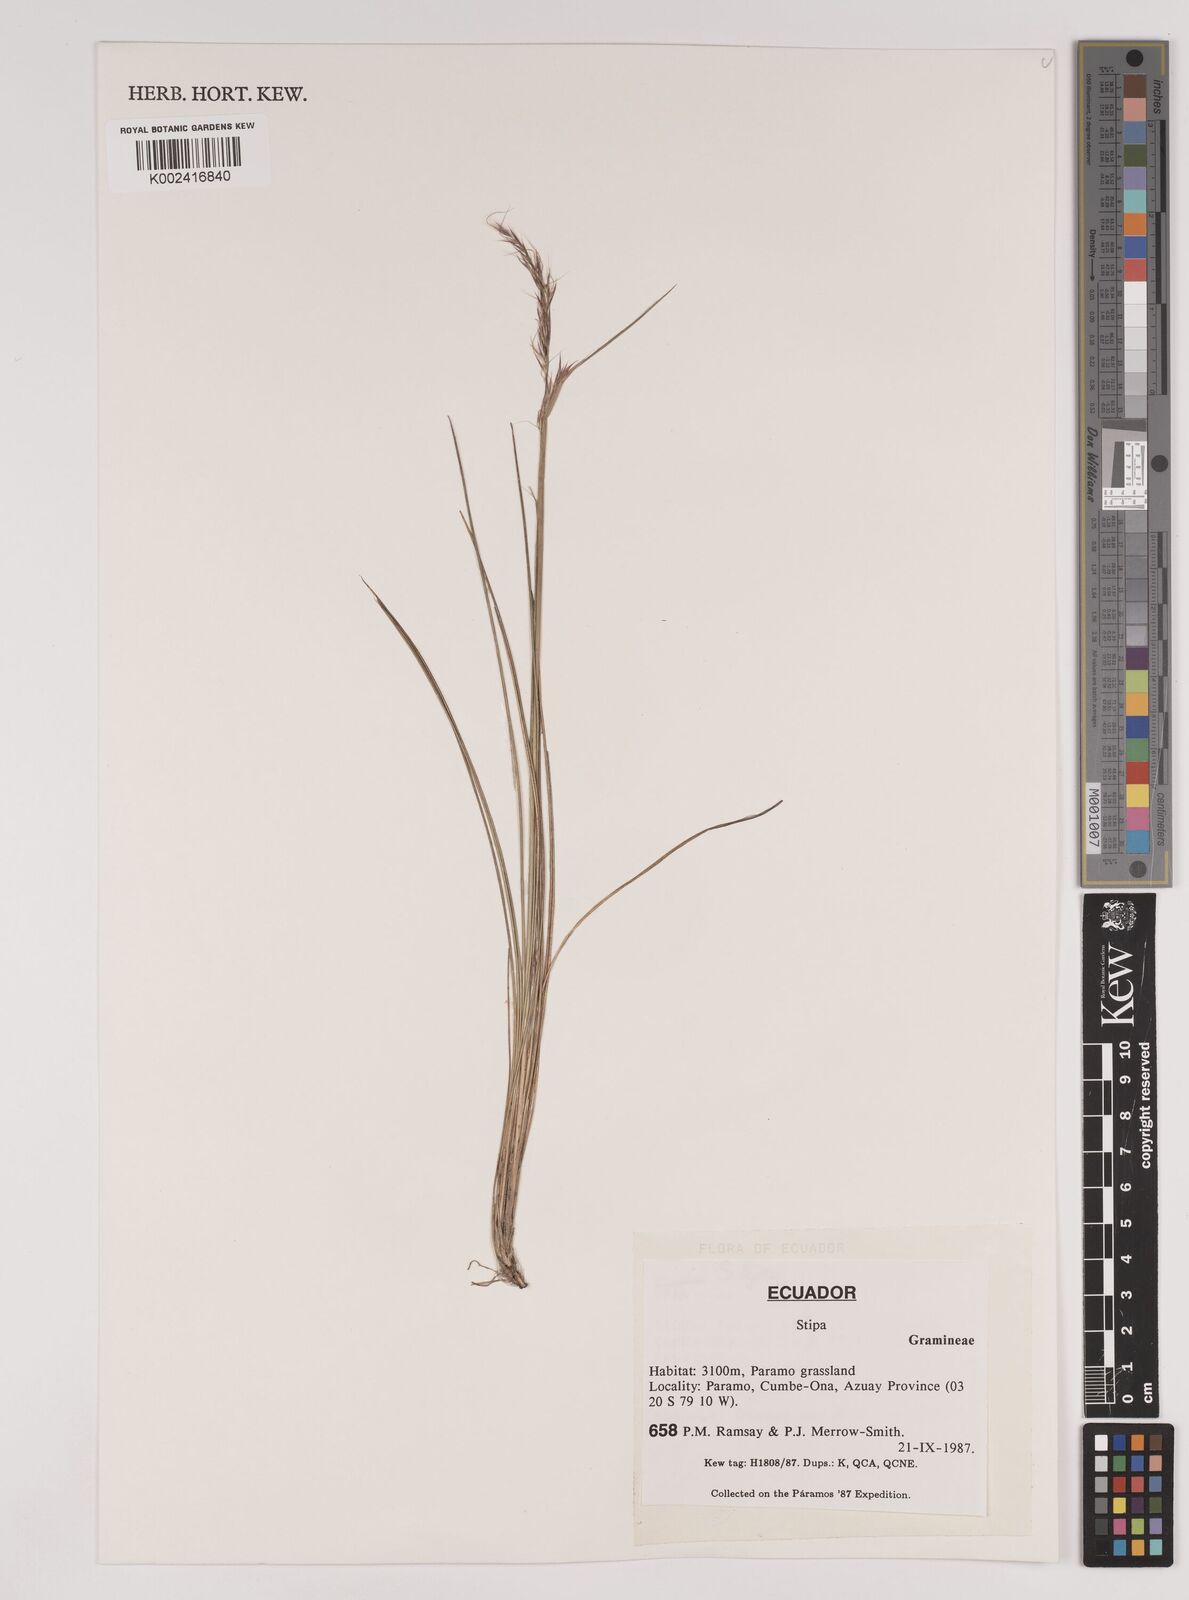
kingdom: Plantae
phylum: Tracheophyta
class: Liliopsida
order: Poales
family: Poaceae
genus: Stipa
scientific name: Stipa
